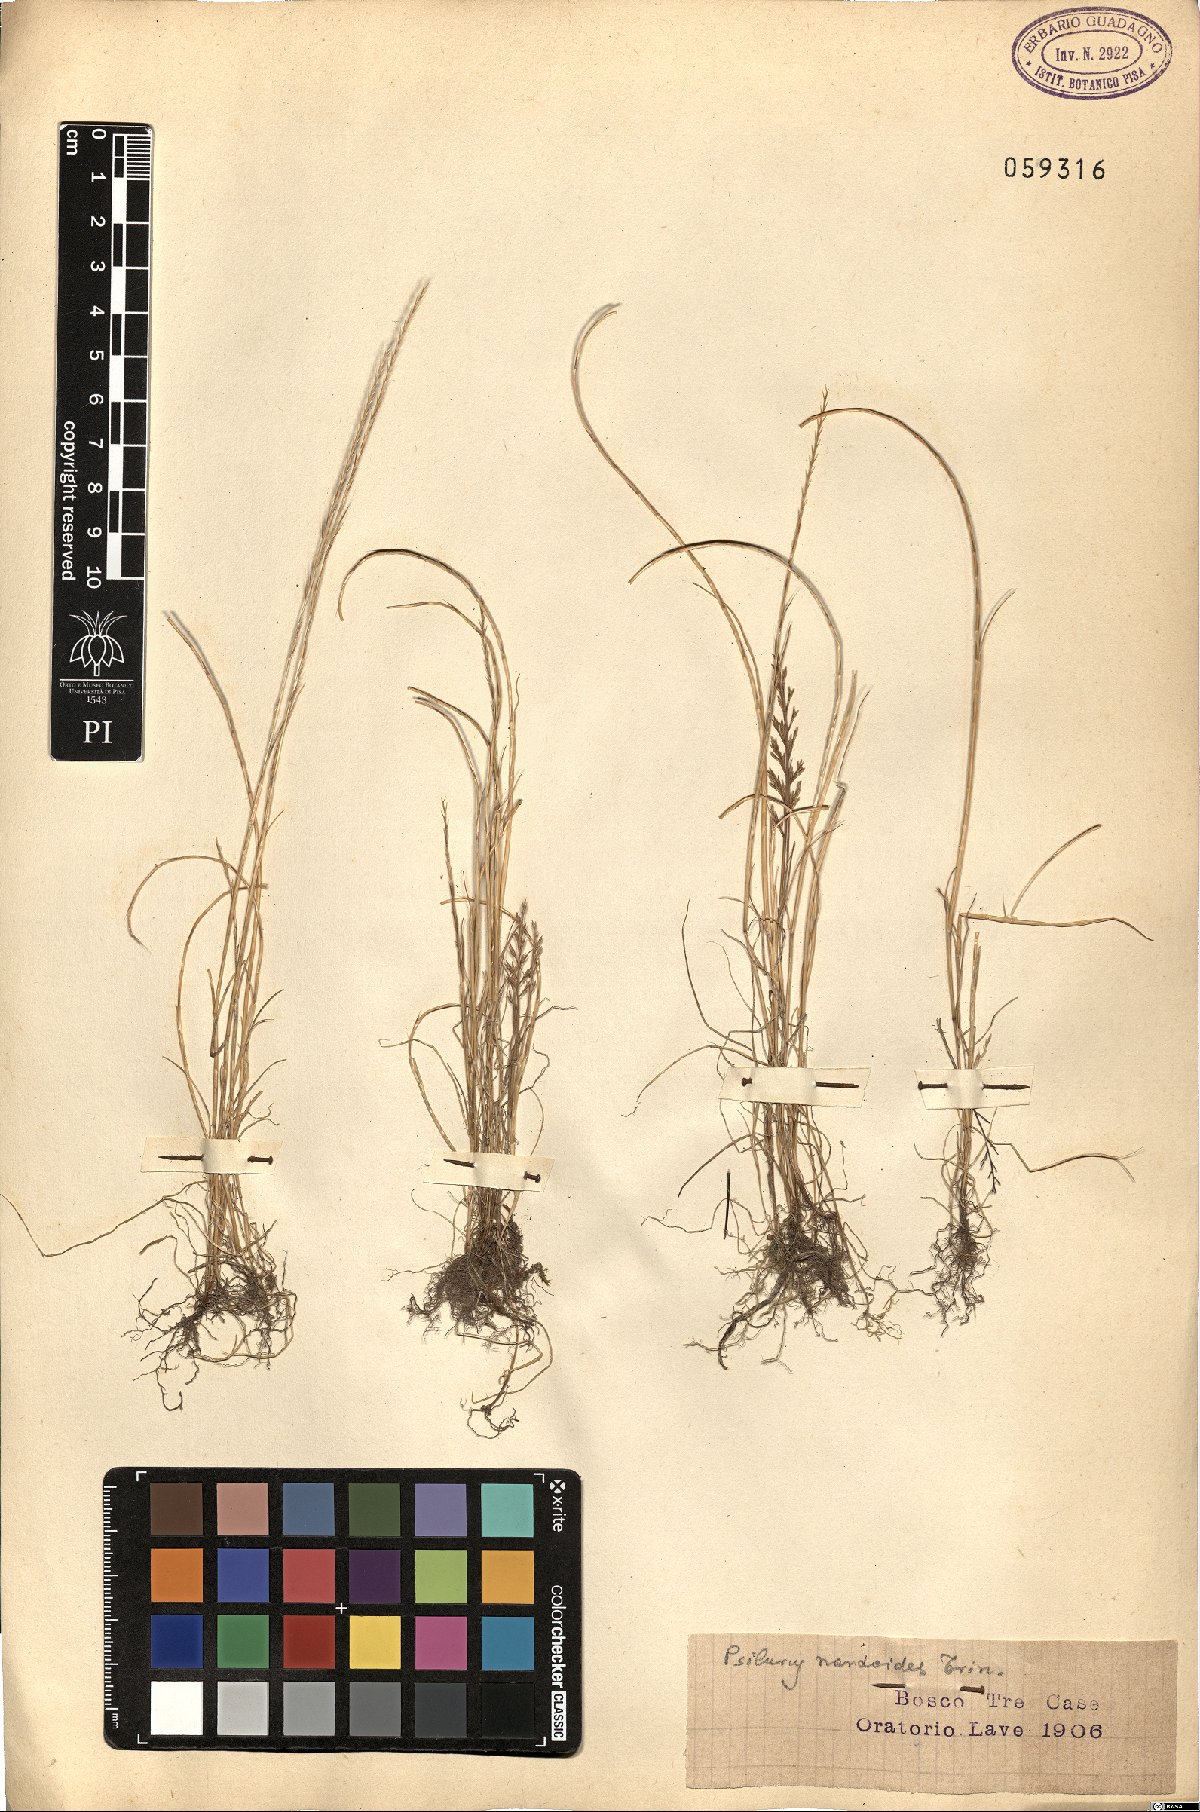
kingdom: Plantae
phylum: Tracheophyta
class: Liliopsida
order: Poales
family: Poaceae
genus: Festuca
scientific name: Festuca incurva
